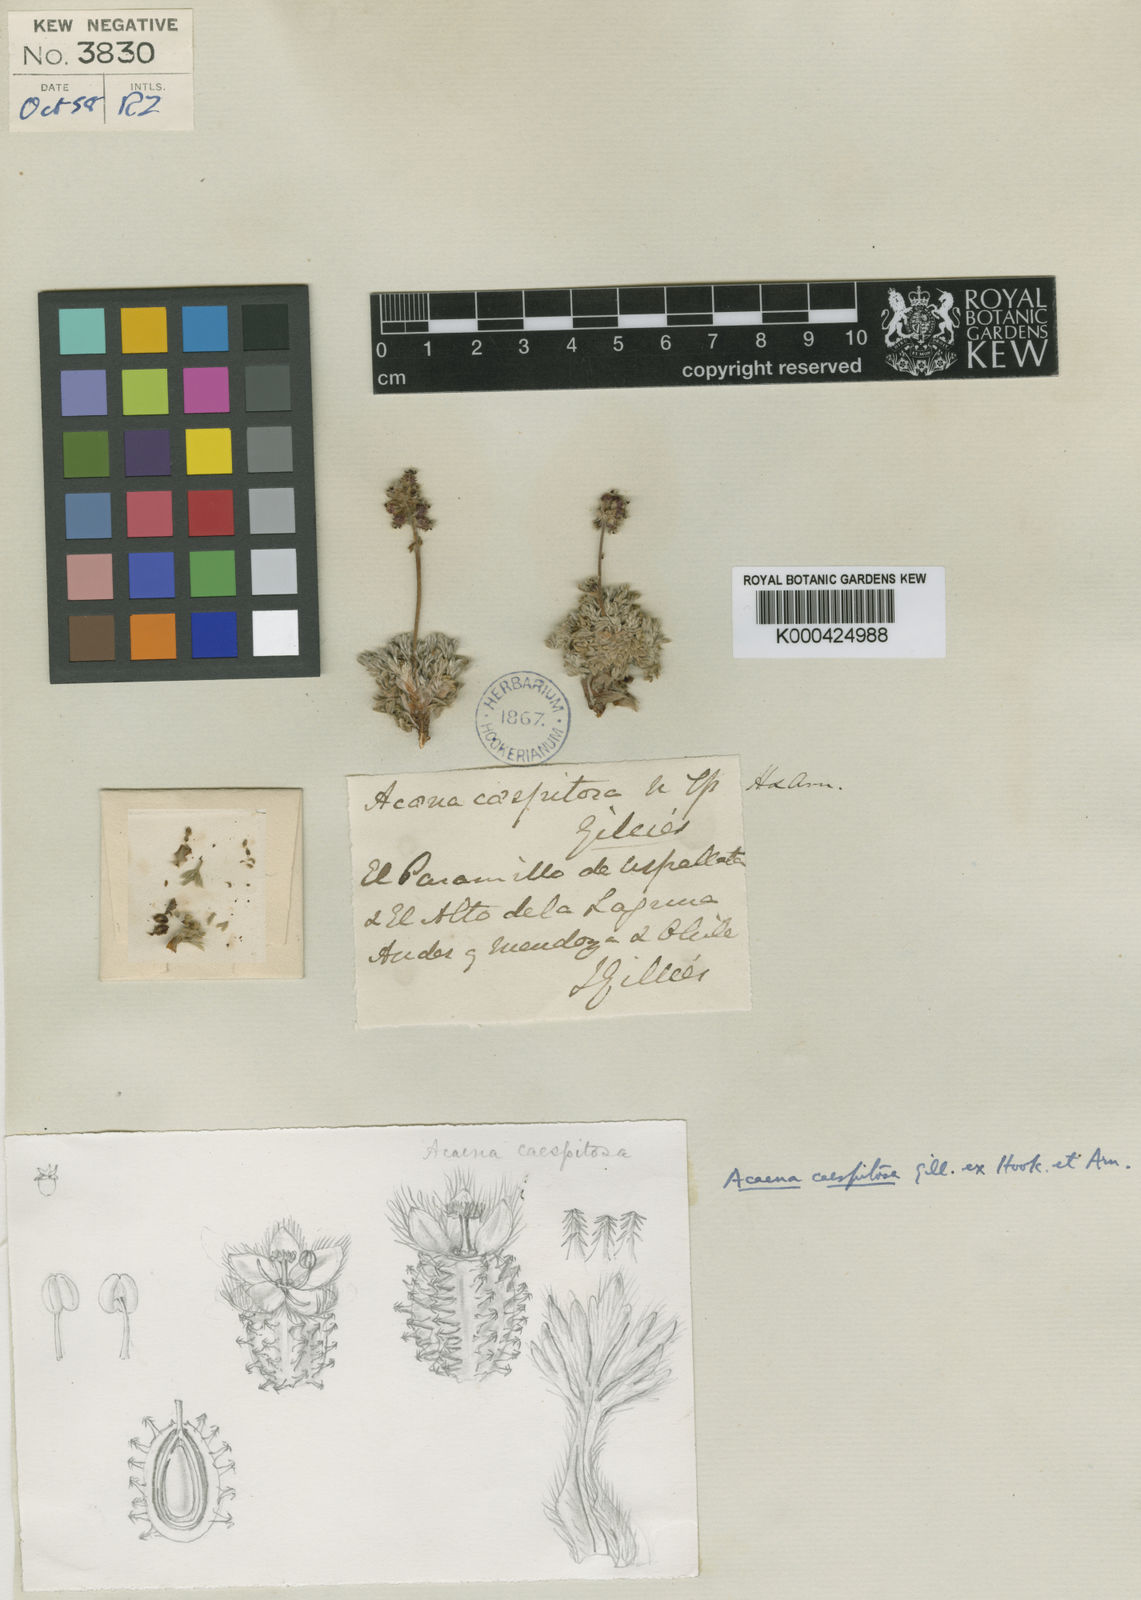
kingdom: Plantae
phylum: Tracheophyta
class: Magnoliopsida
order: Rosales
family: Rosaceae
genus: Acaena
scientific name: Acaena caespitosa
